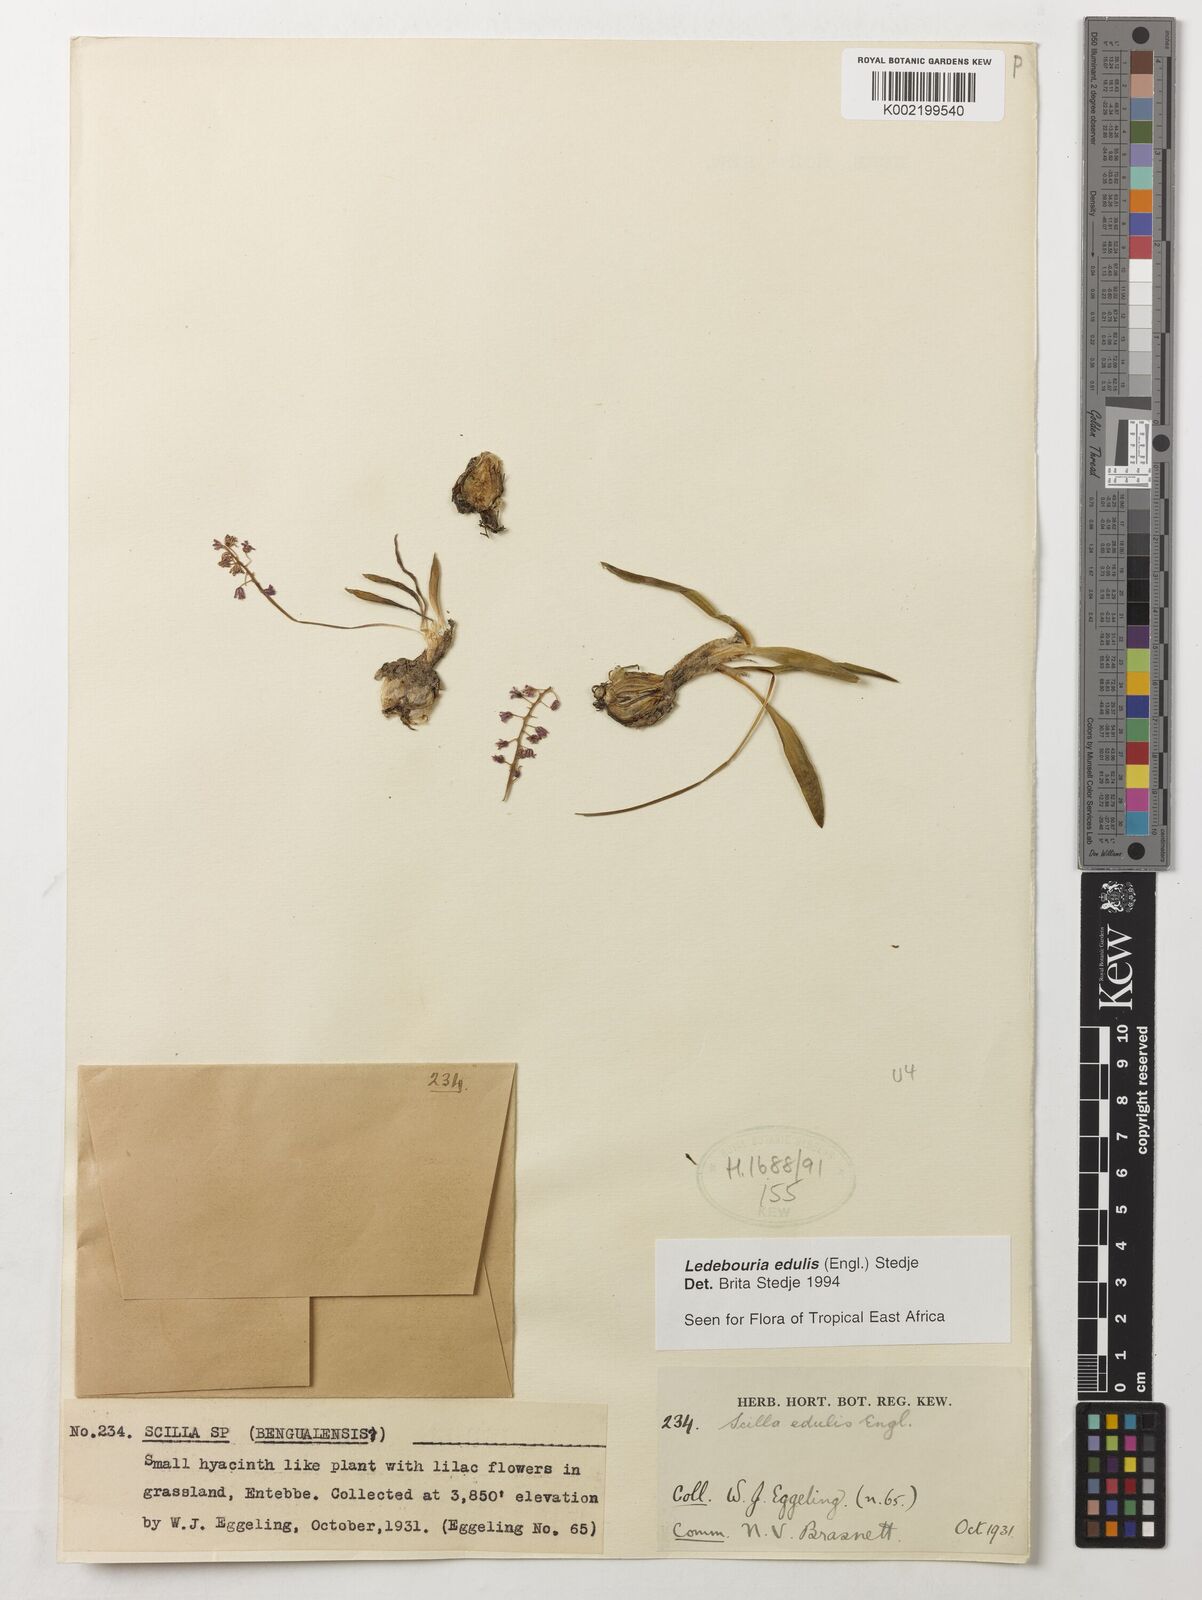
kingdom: Plantae
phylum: Tracheophyta
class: Liliopsida
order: Asparagales
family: Asparagaceae
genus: Ledebouria
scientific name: Ledebouria edulis
